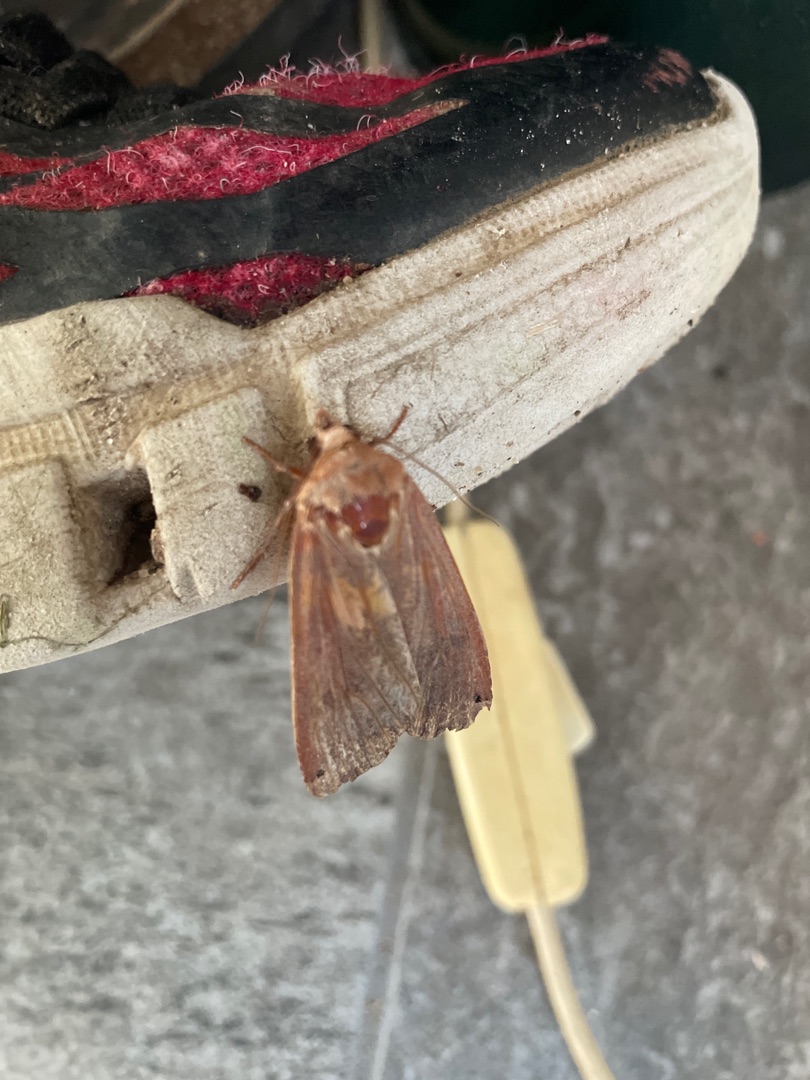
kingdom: Animalia
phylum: Arthropoda
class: Insecta
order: Lepidoptera
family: Noctuidae
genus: Noctua
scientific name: Noctua pronuba
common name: Stor smutugle
